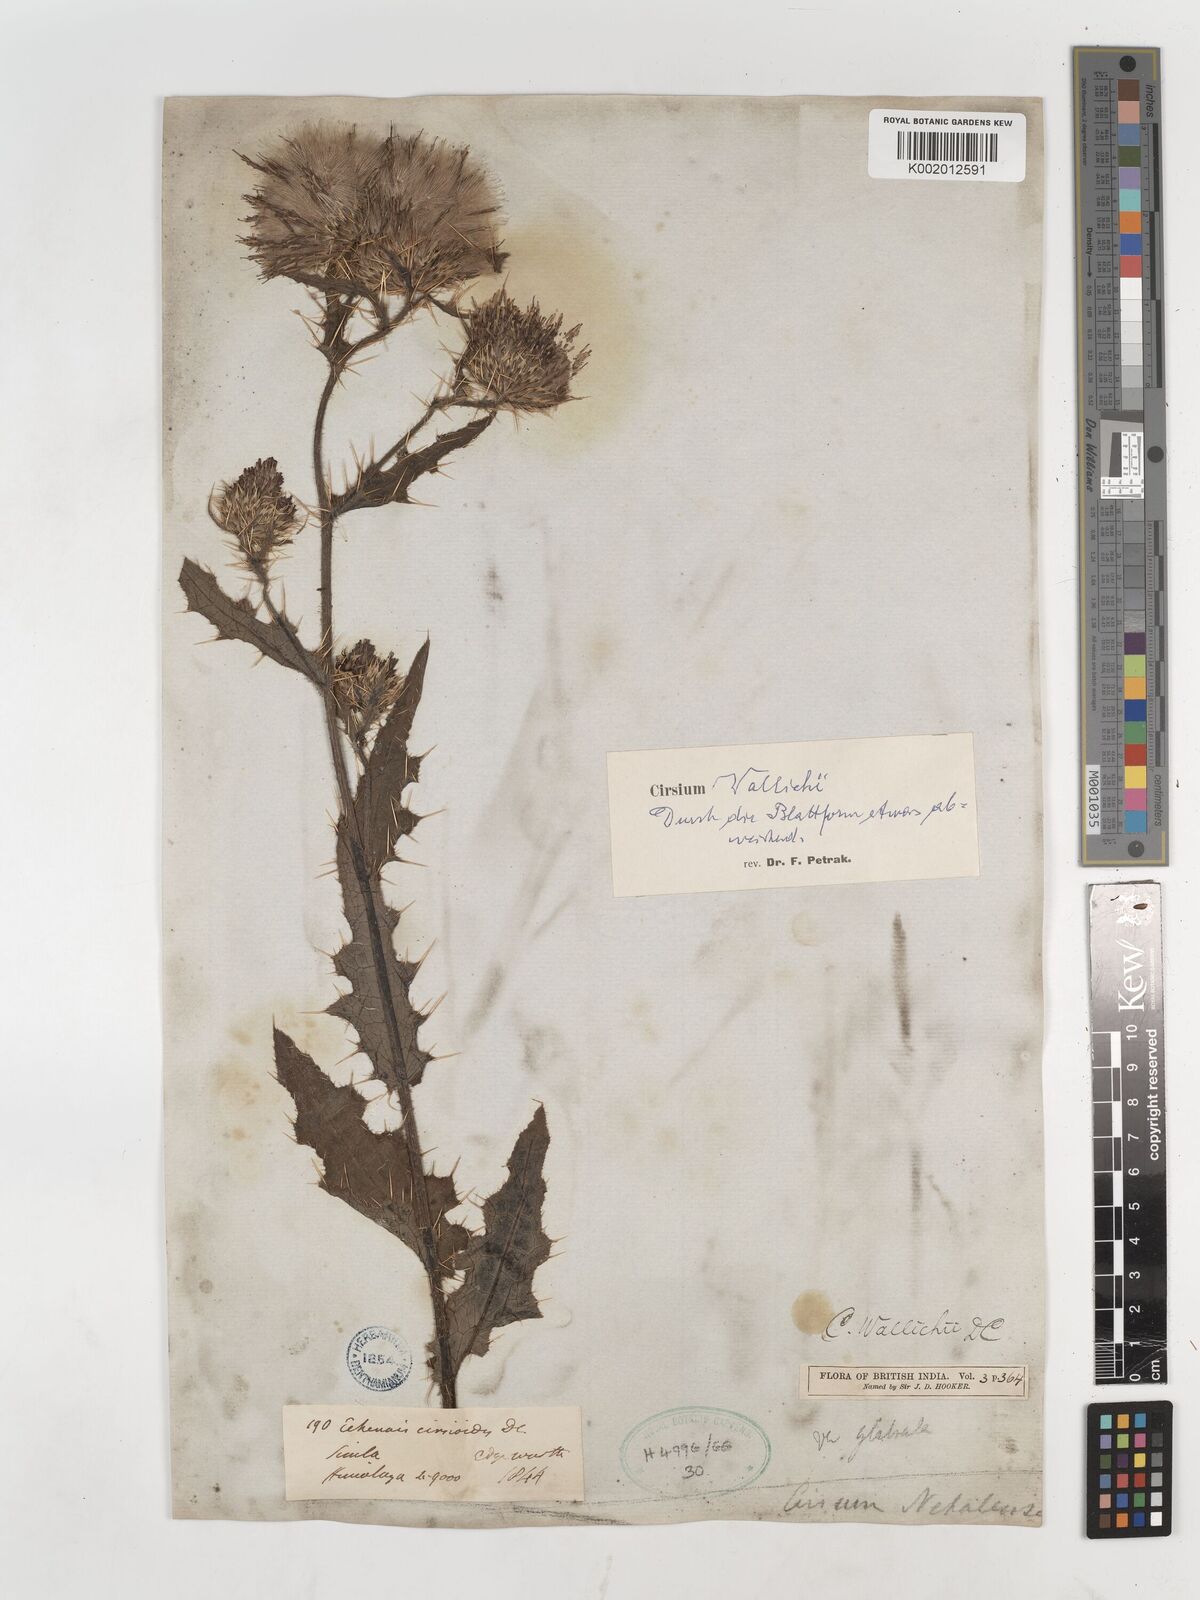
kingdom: Plantae
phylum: Tracheophyta
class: Magnoliopsida
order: Asterales
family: Asteraceae
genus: Cirsium
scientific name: Cirsium wallichii
